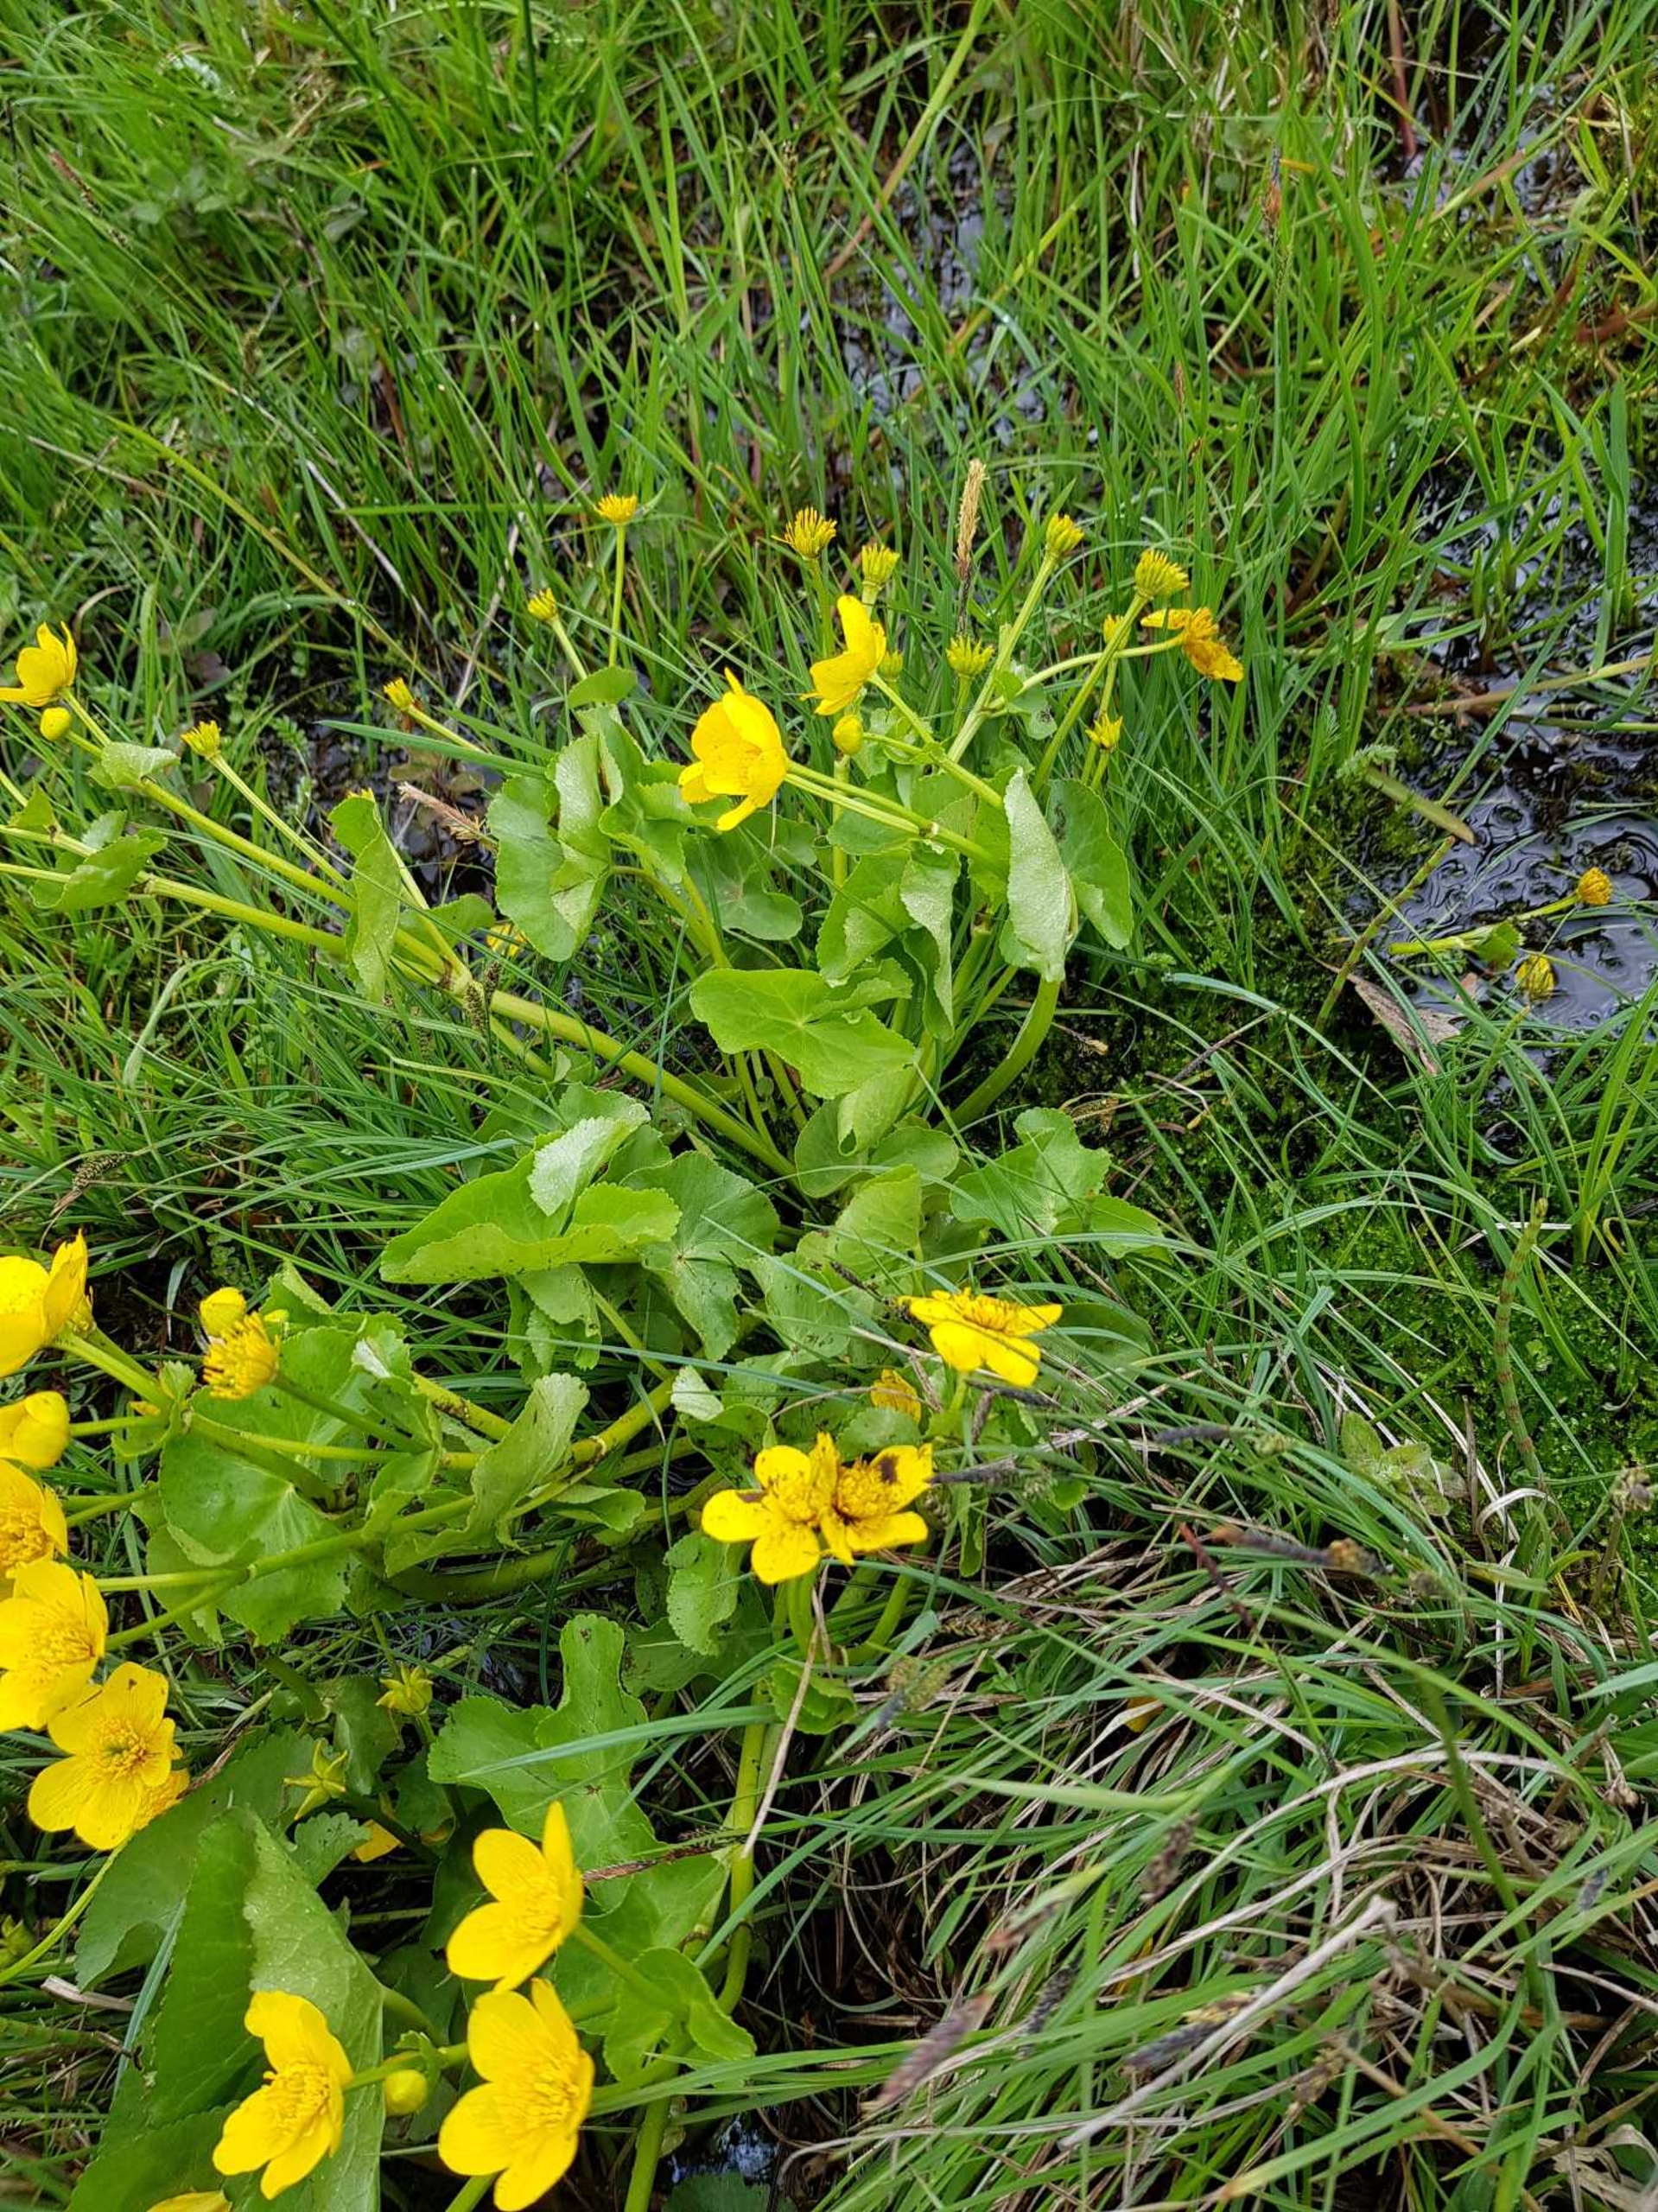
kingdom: Plantae
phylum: Tracheophyta
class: Magnoliopsida
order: Ranunculales
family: Ranunculaceae
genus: Caltha
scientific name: Caltha palustris
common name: Eng-kabbeleje
